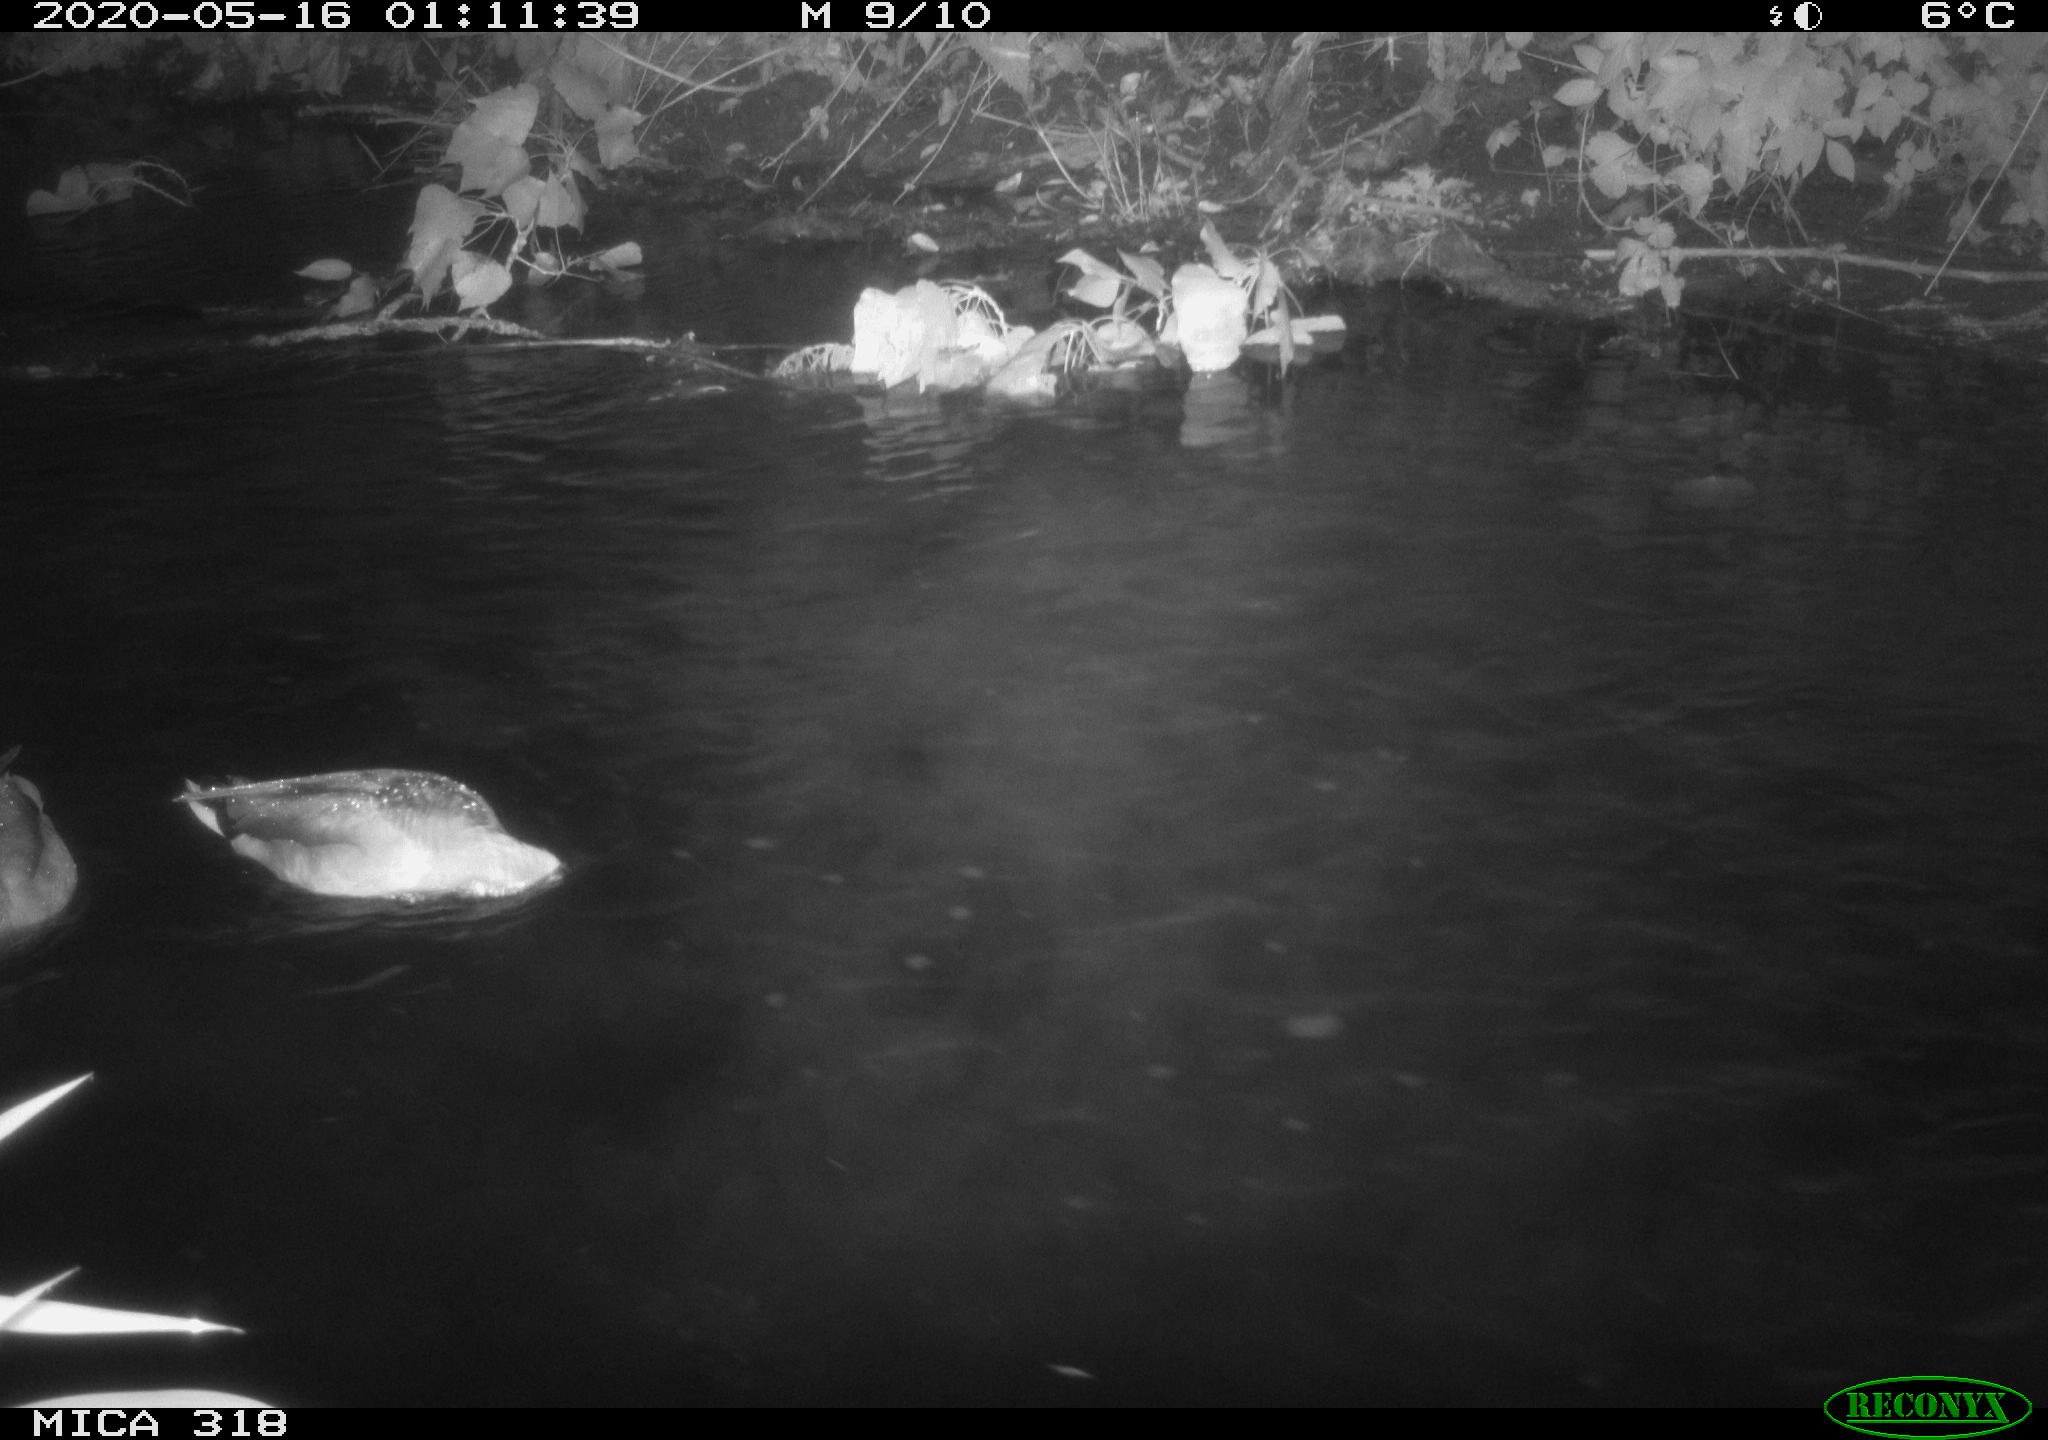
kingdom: Animalia
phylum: Chordata
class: Aves
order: Anseriformes
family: Anatidae
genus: Anas
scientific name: Anas platyrhynchos
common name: Mallard
